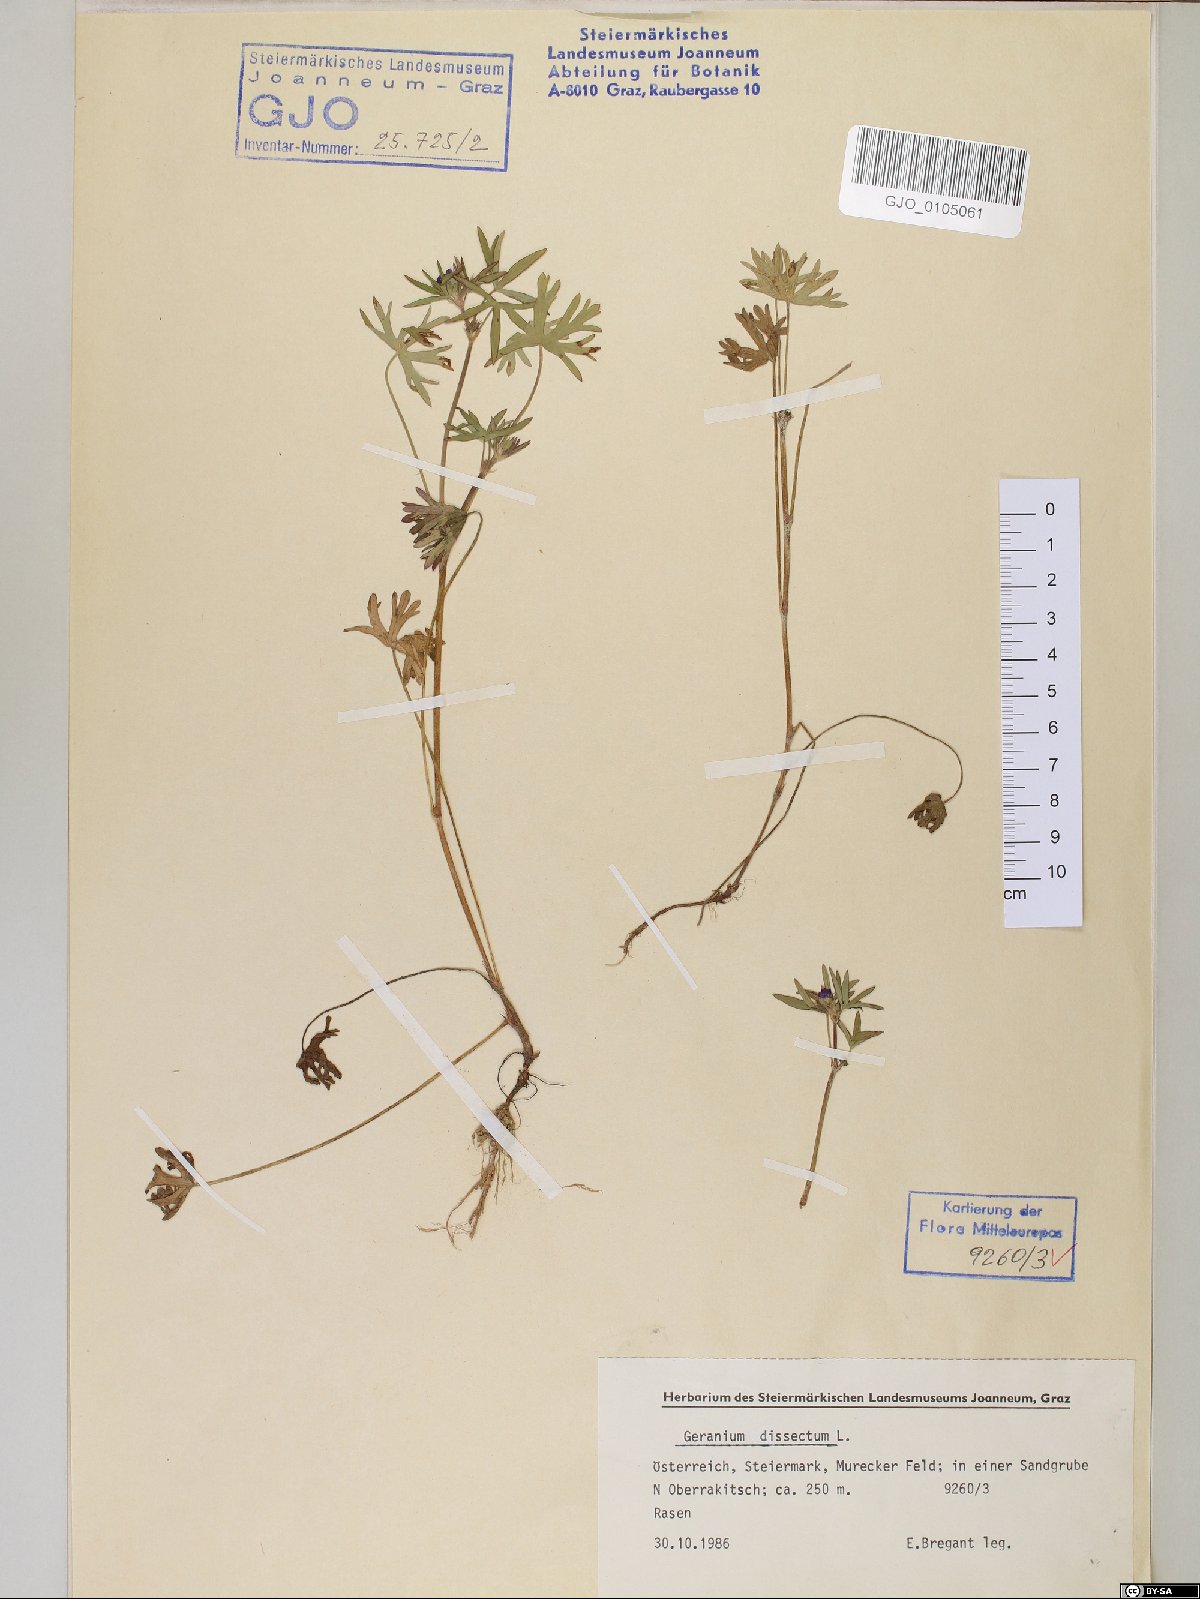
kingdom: Plantae
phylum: Tracheophyta
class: Magnoliopsida
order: Geraniales
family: Geraniaceae
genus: Geranium
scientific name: Geranium dissectum
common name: Cut-leaved crane's-bill
